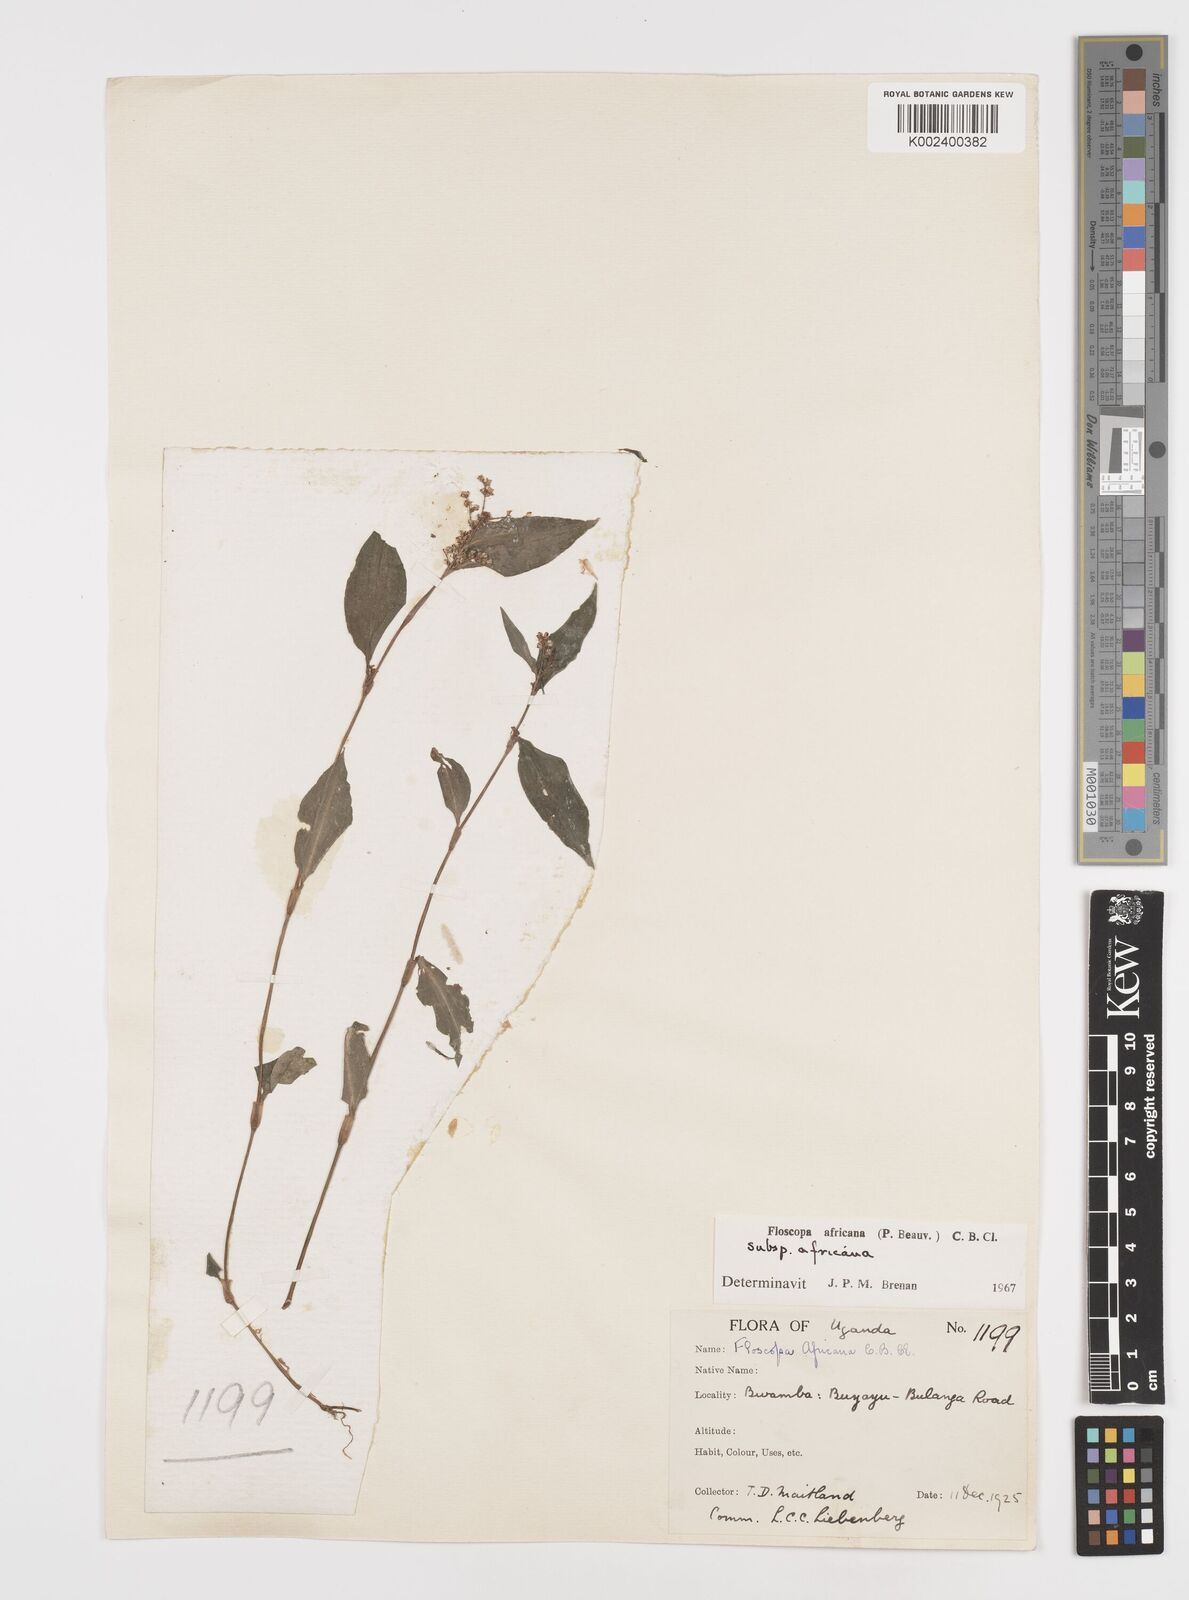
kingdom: Plantae
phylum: Tracheophyta
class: Liliopsida
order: Commelinales
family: Commelinaceae
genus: Floscopa
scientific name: Floscopa africana
